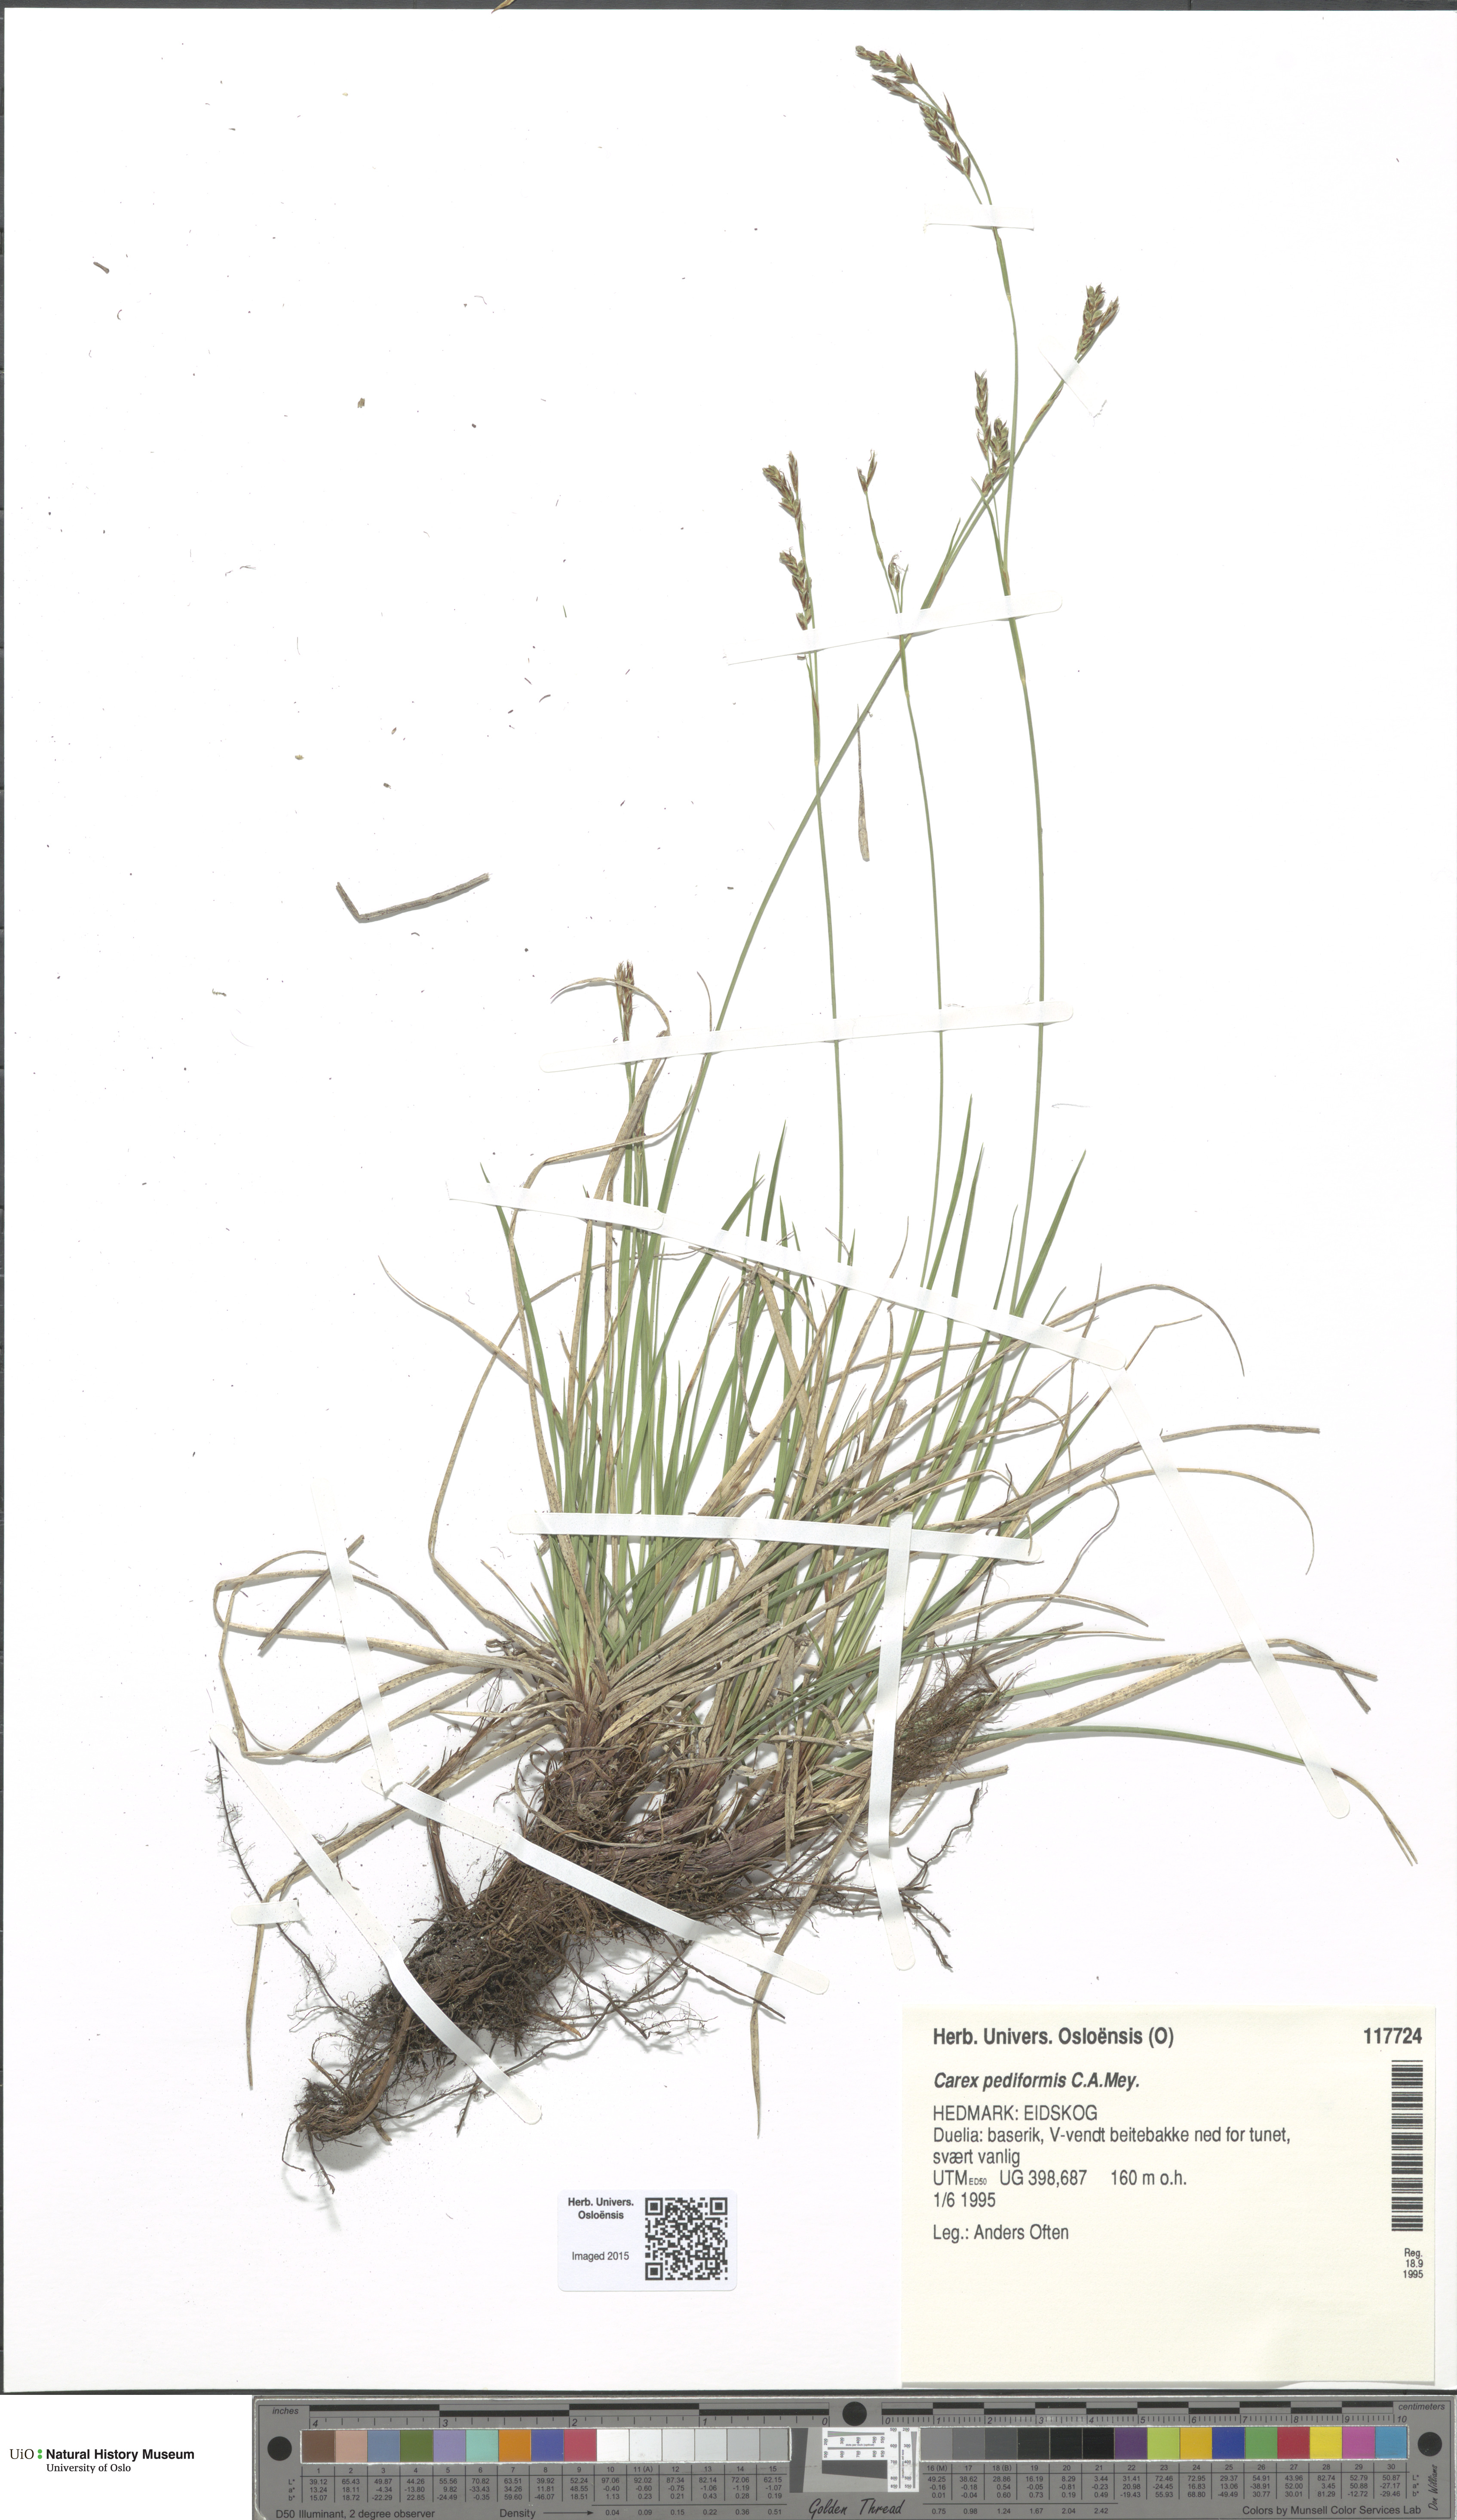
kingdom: Plantae
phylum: Tracheophyta
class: Liliopsida
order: Poales
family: Cyperaceae
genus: Carex
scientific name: Carex rhizina
